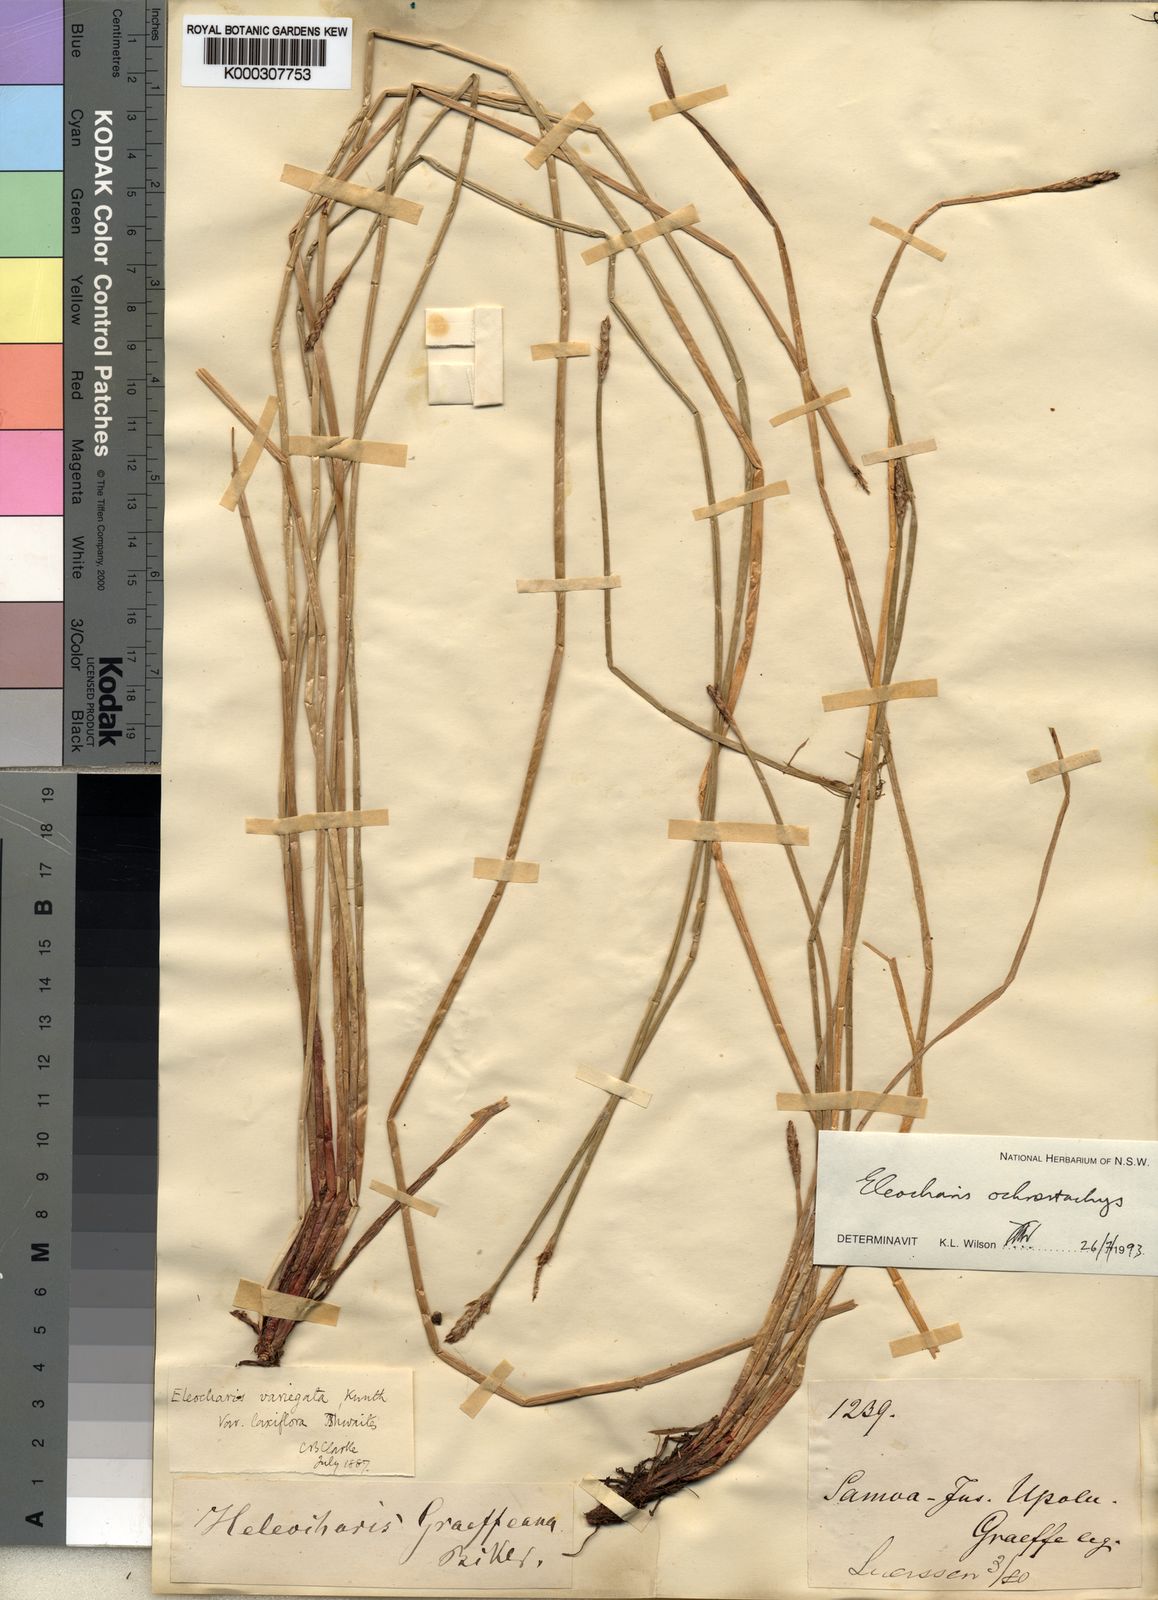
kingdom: Plantae
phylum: Tracheophyta
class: Liliopsida
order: Poales
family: Cyperaceae
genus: Eleocharis
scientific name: Eleocharis ochrostachys
